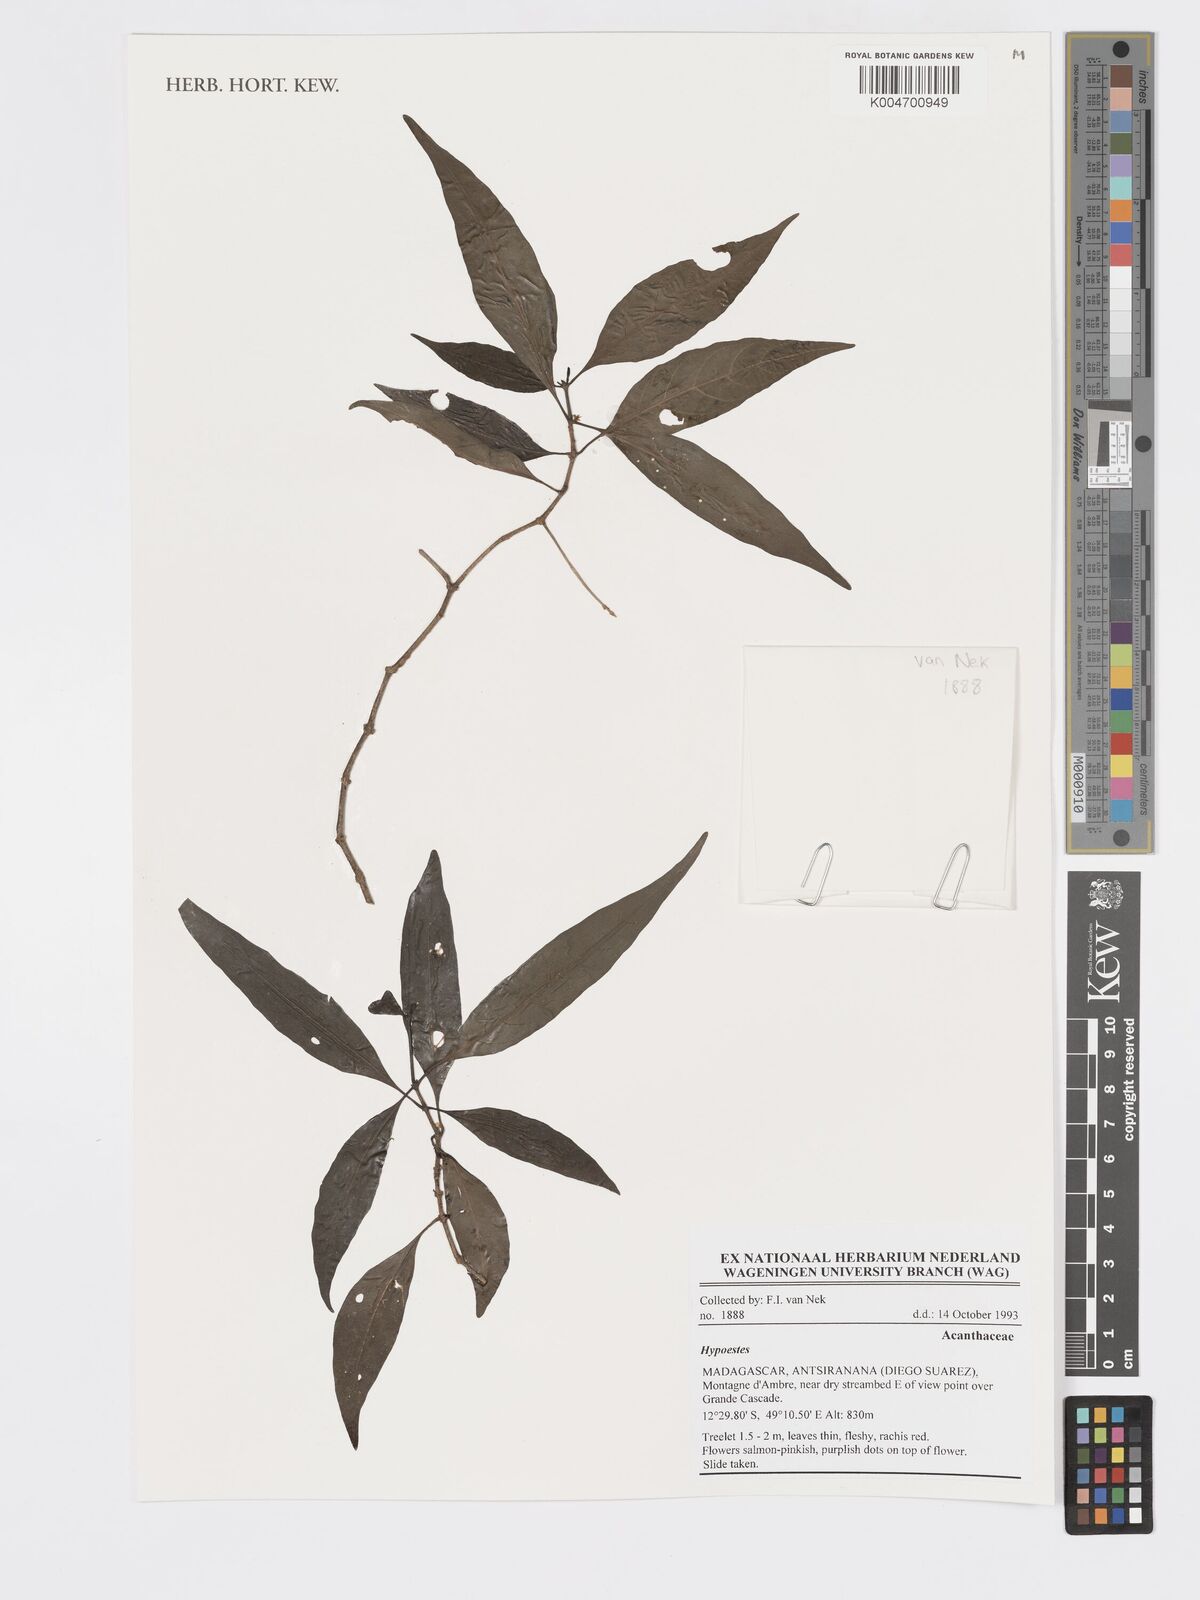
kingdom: Plantae
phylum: Tracheophyta
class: Magnoliopsida
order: Lamiales
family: Acanthaceae
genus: Hypoestes
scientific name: Hypoestes
